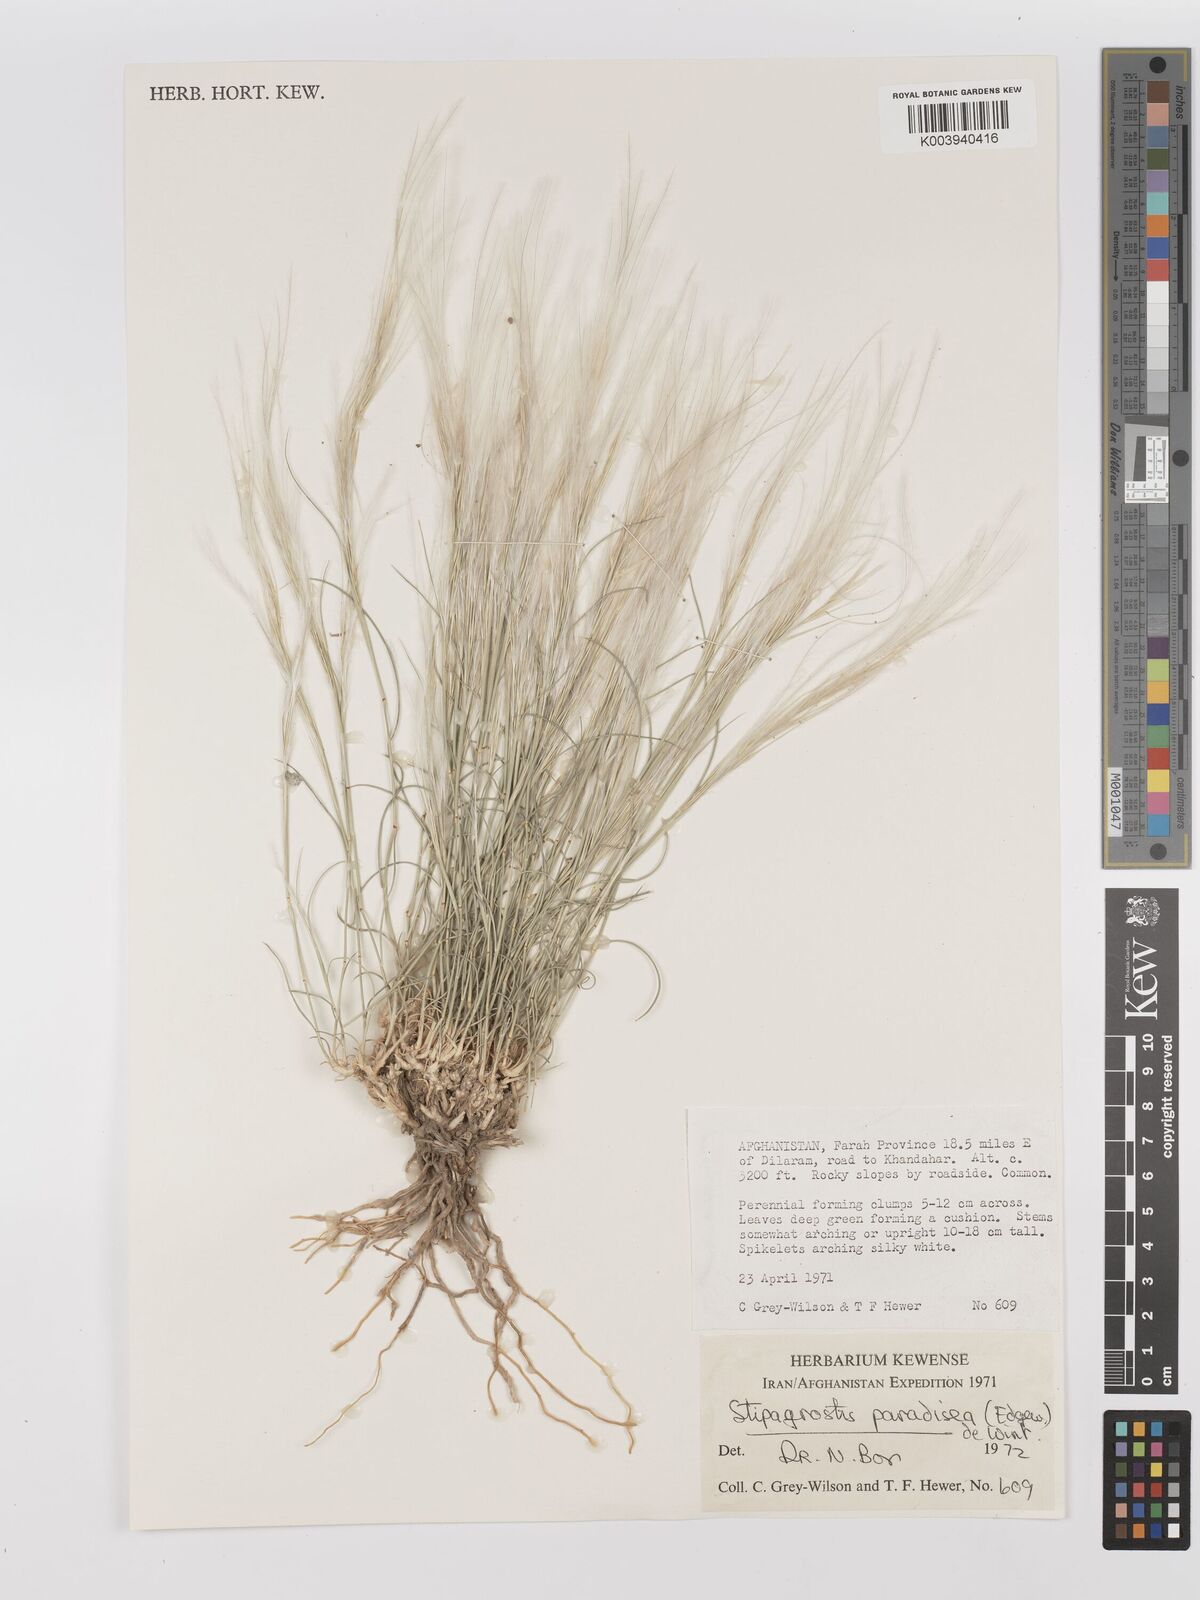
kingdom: Plantae
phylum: Tracheophyta
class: Liliopsida
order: Poales
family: Poaceae
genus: Stipagrostis
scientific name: Stipagrostis paradisea
